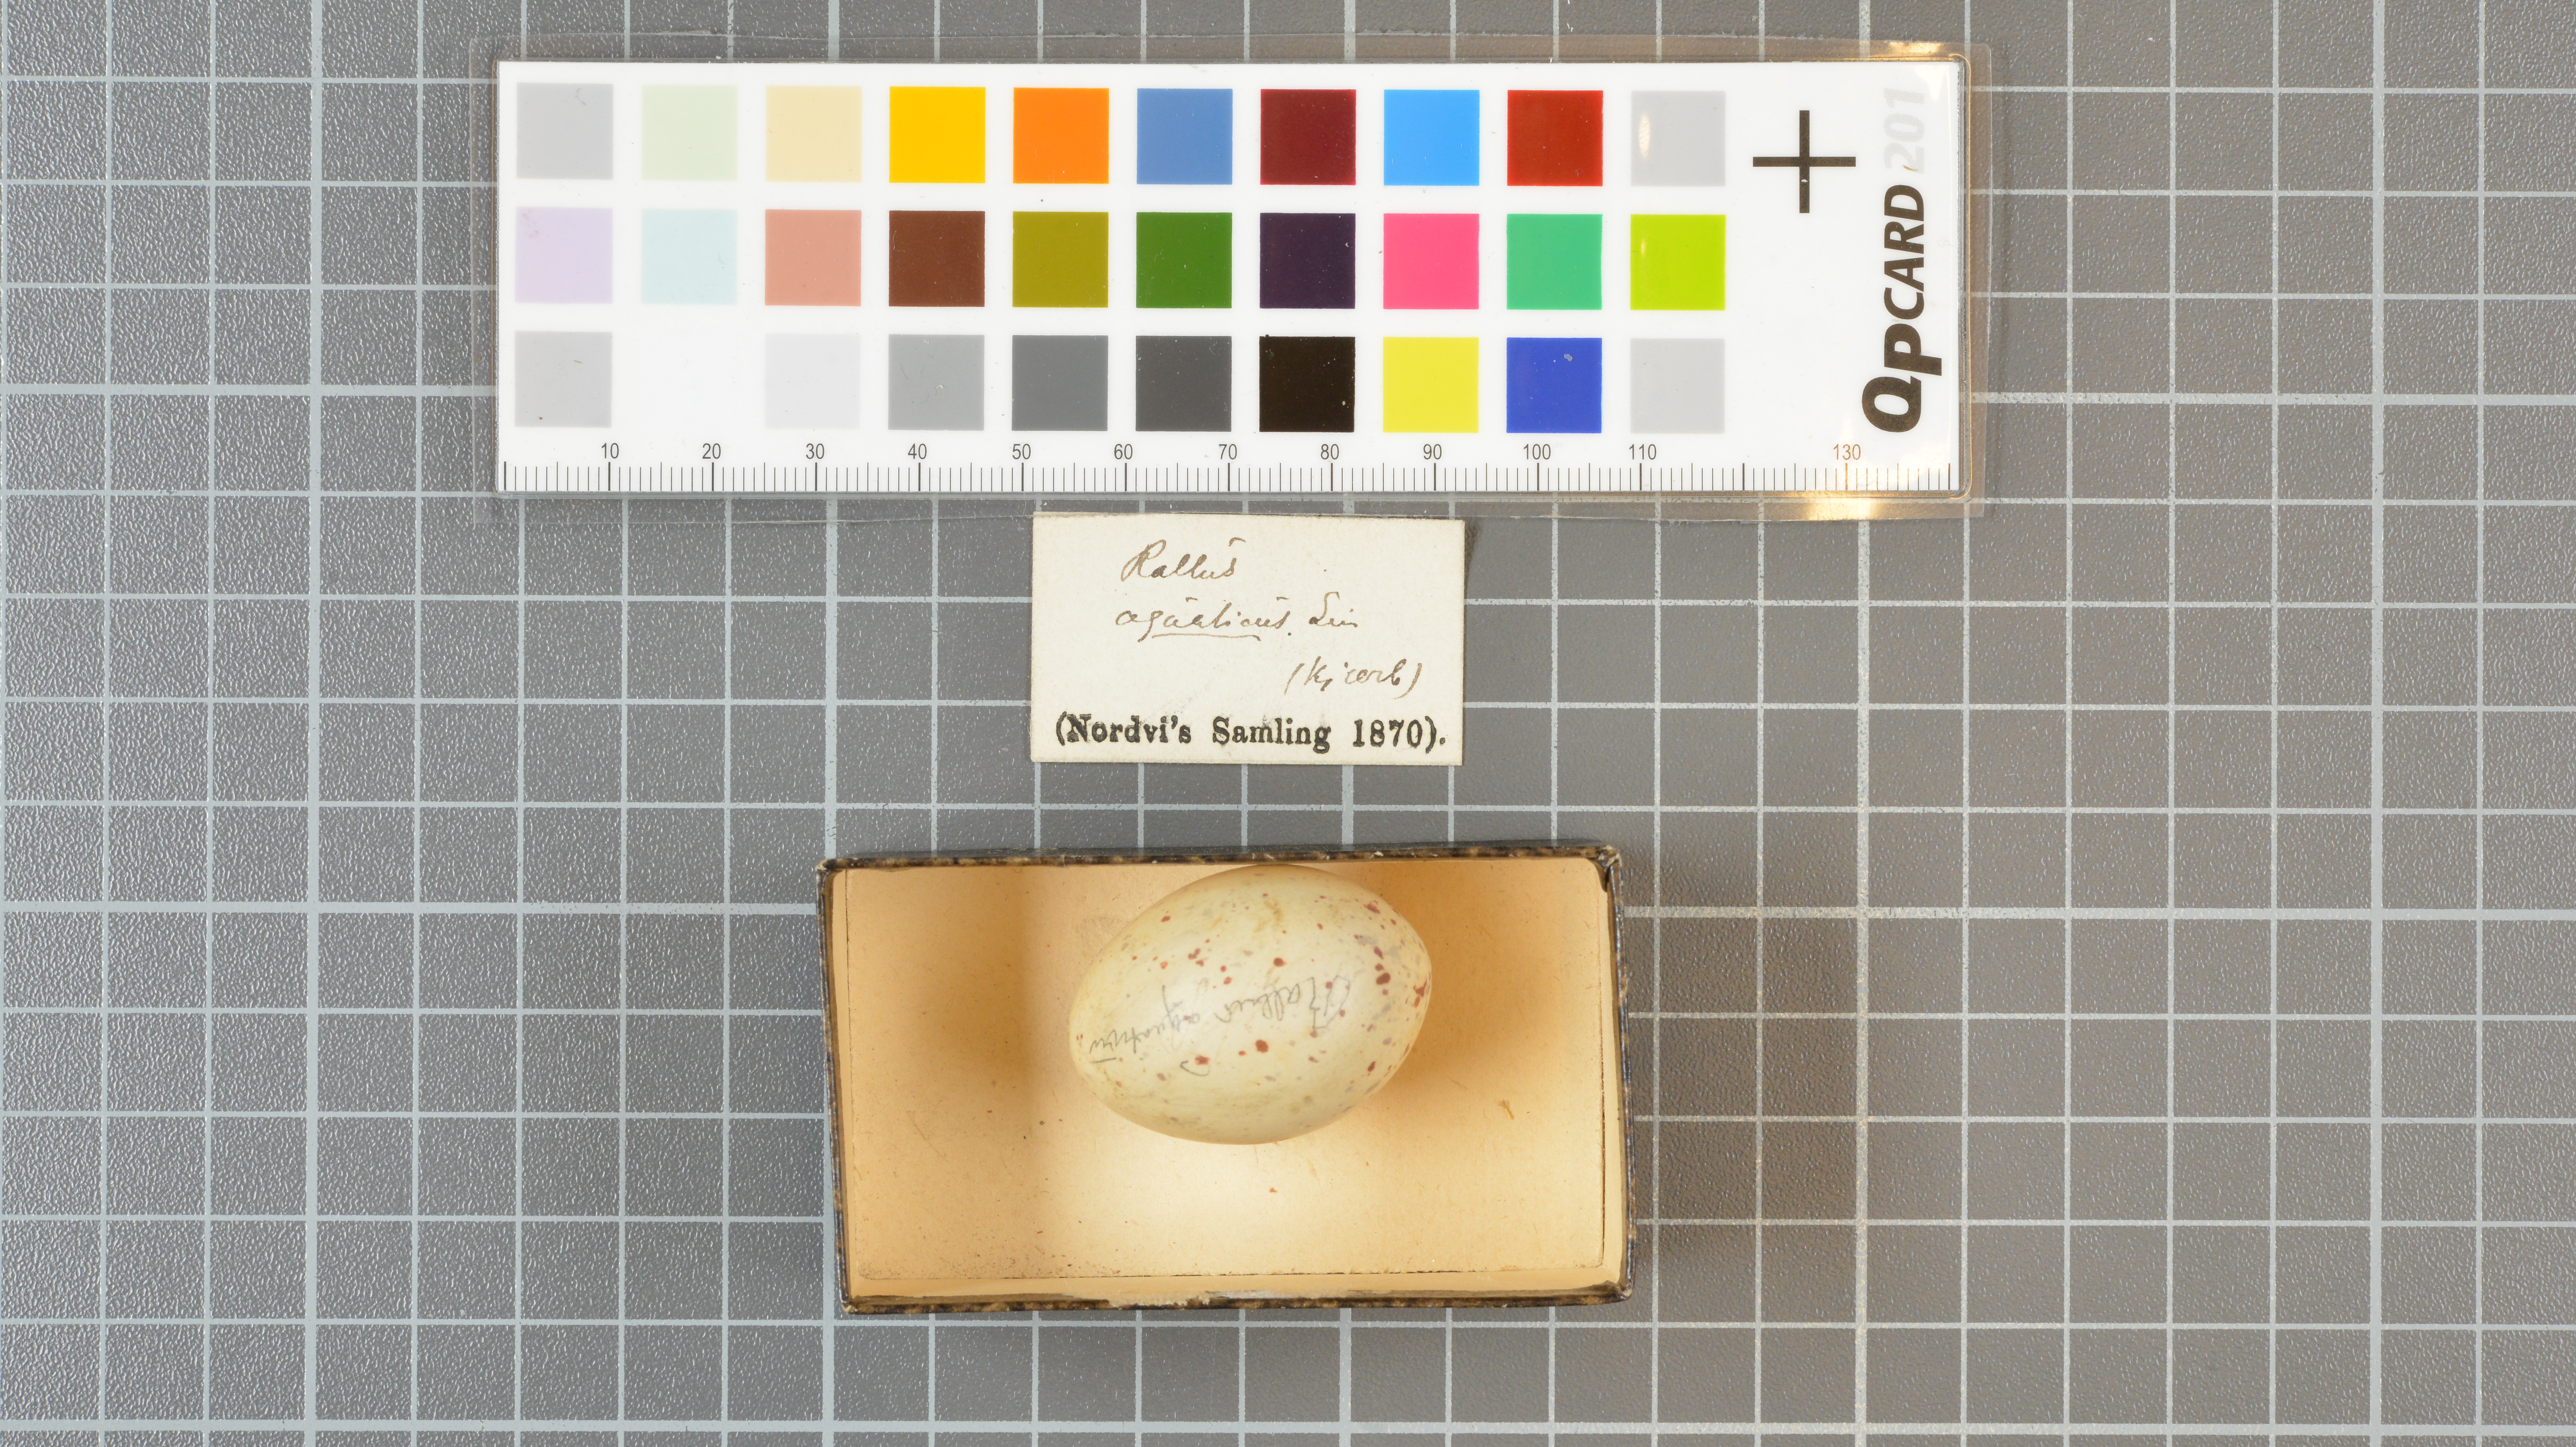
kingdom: Animalia
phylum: Chordata
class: Aves
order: Gruiformes
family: Rallidae
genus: Rallus
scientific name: Rallus aquaticus
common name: Water rail
